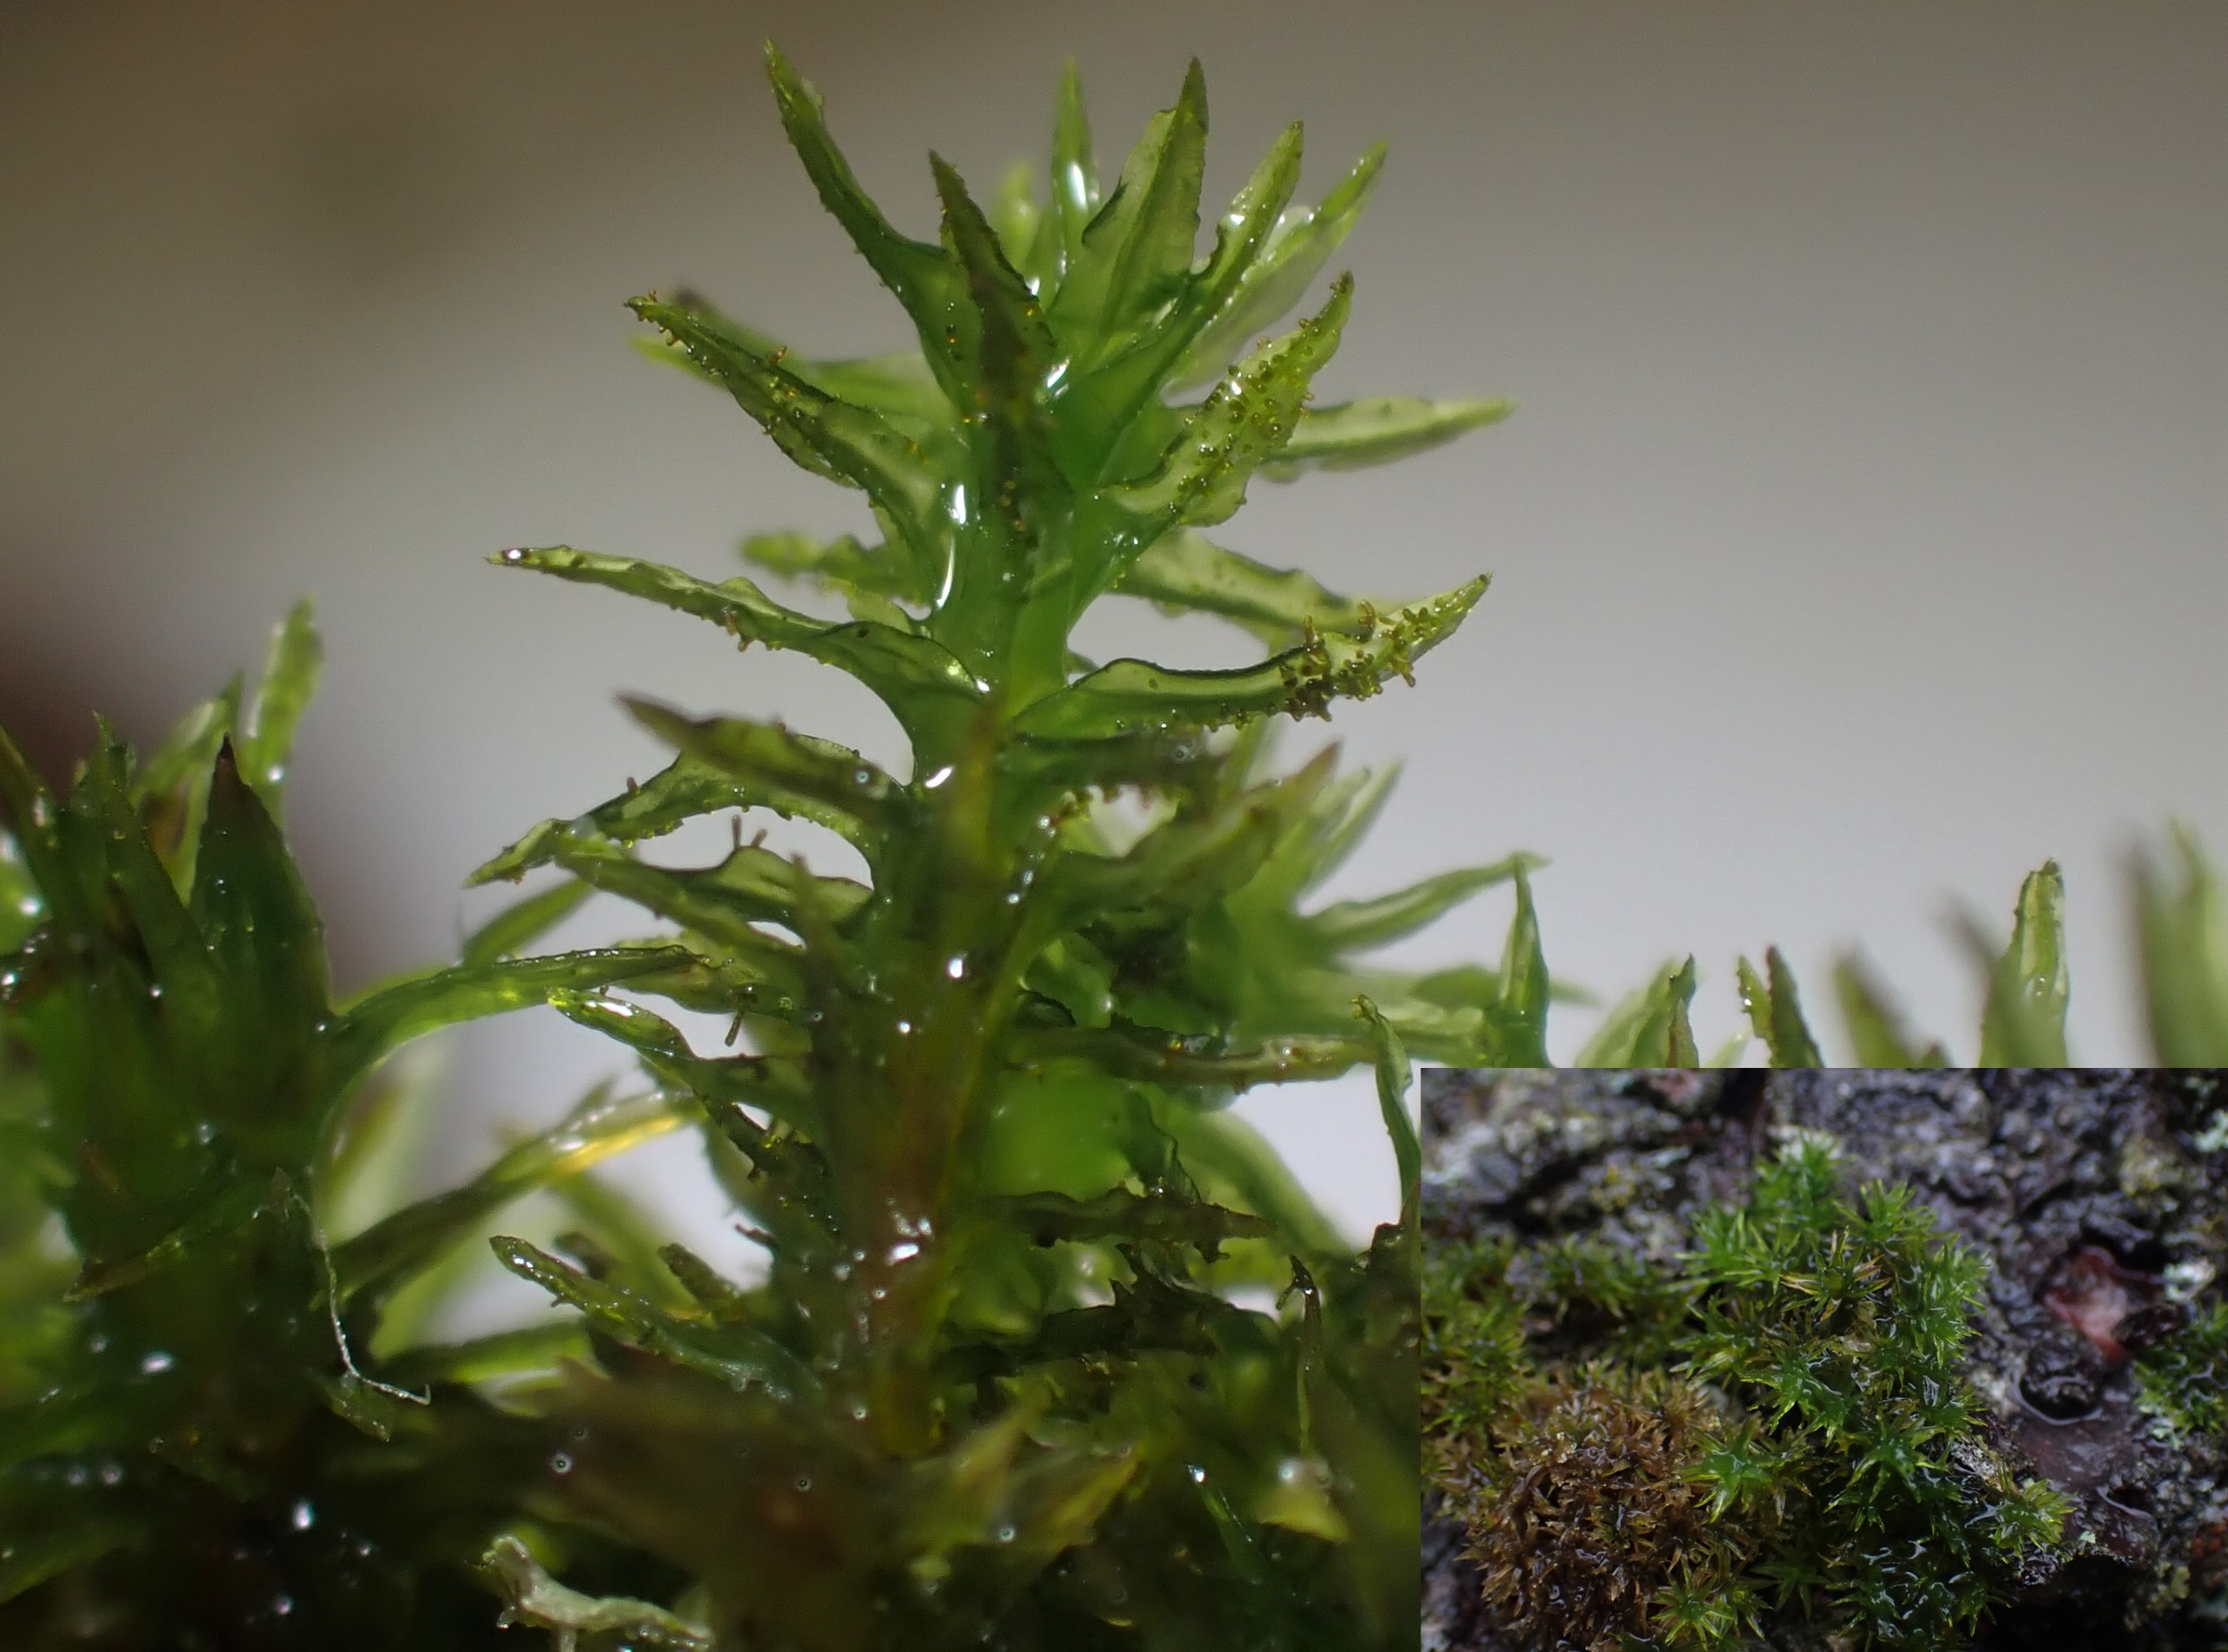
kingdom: Plantae
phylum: Bryophyta
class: Bryopsida
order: Orthotrichales
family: Orthotrichaceae
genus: Pulvigera
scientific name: Pulvigera lyellii
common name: Stor furehætte
